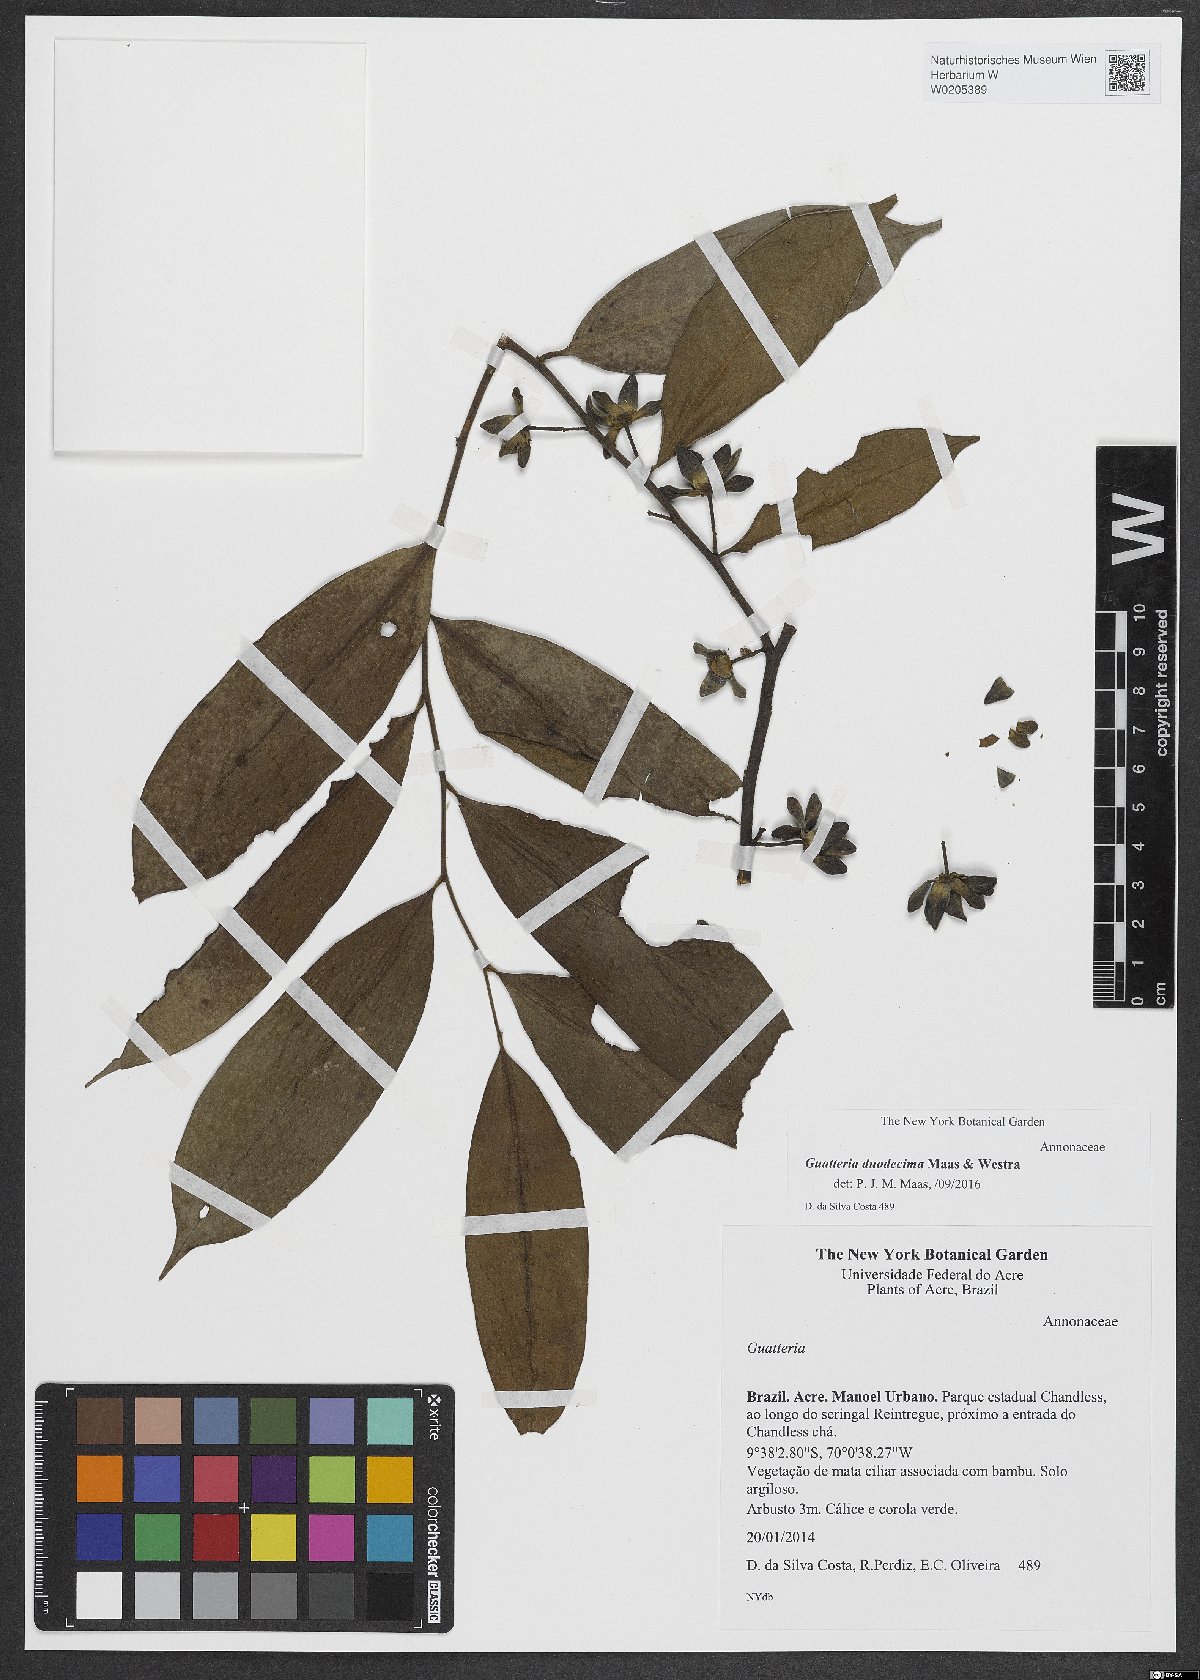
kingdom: Plantae
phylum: Tracheophyta
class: Magnoliopsida
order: Magnoliales
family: Annonaceae
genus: Guatteria
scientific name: Guatteria duodecima
